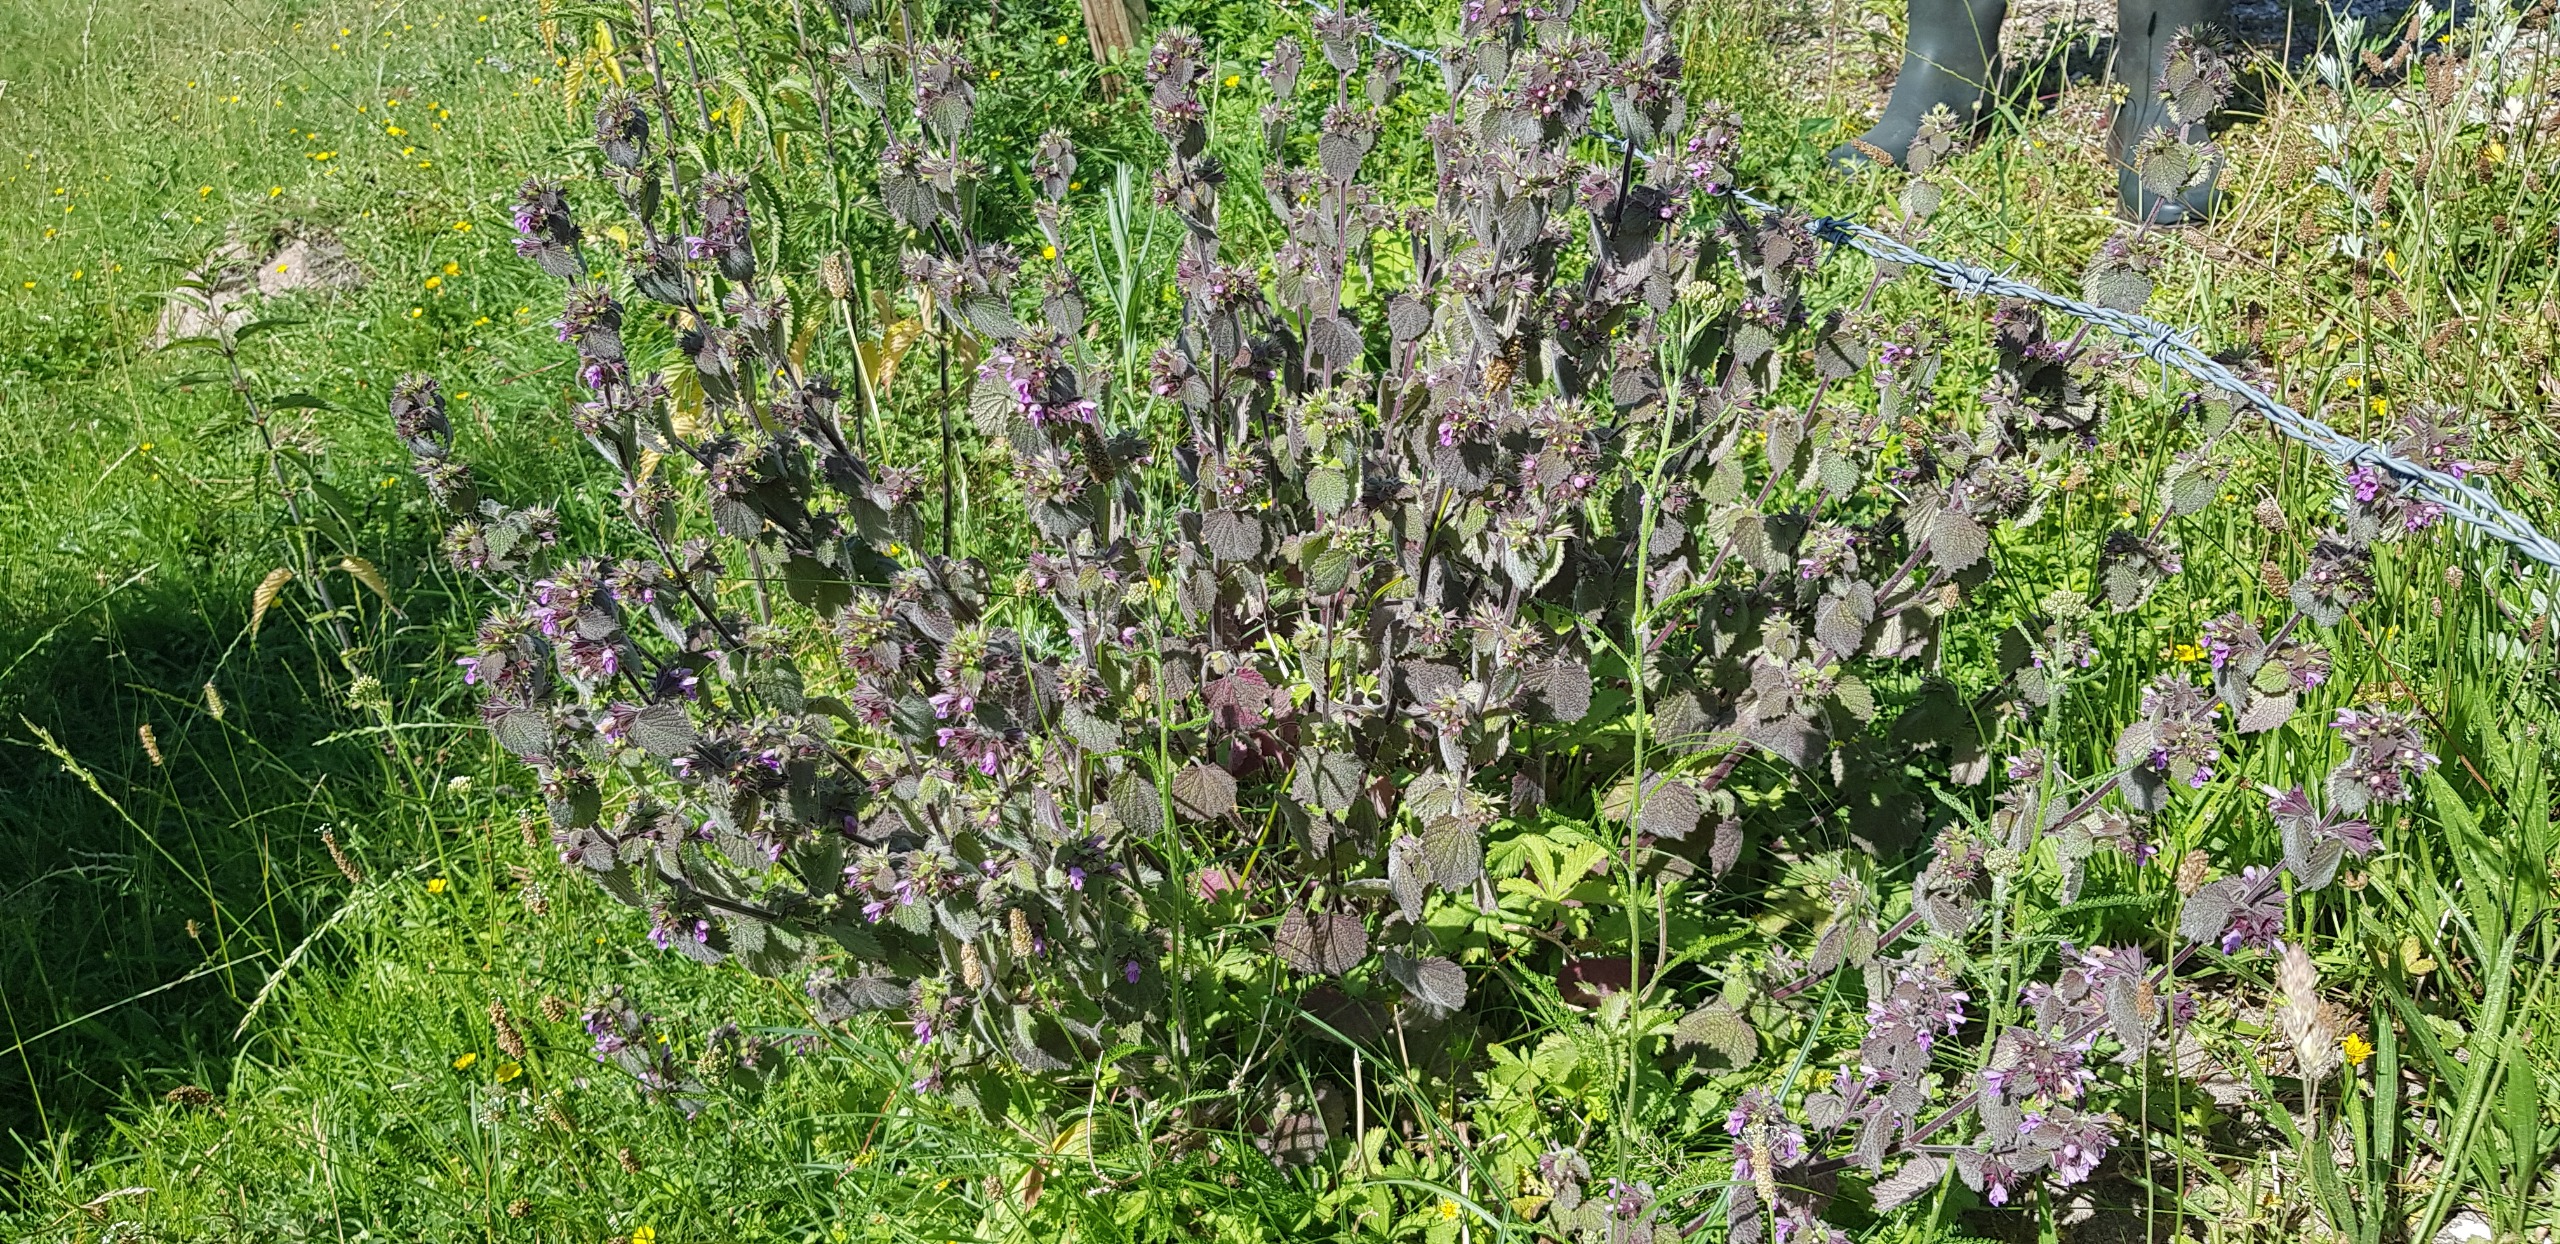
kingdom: Plantae
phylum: Tracheophyta
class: Magnoliopsida
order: Lamiales
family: Lamiaceae
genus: Ballota
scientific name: Ballota nigra
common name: Tandbæger
